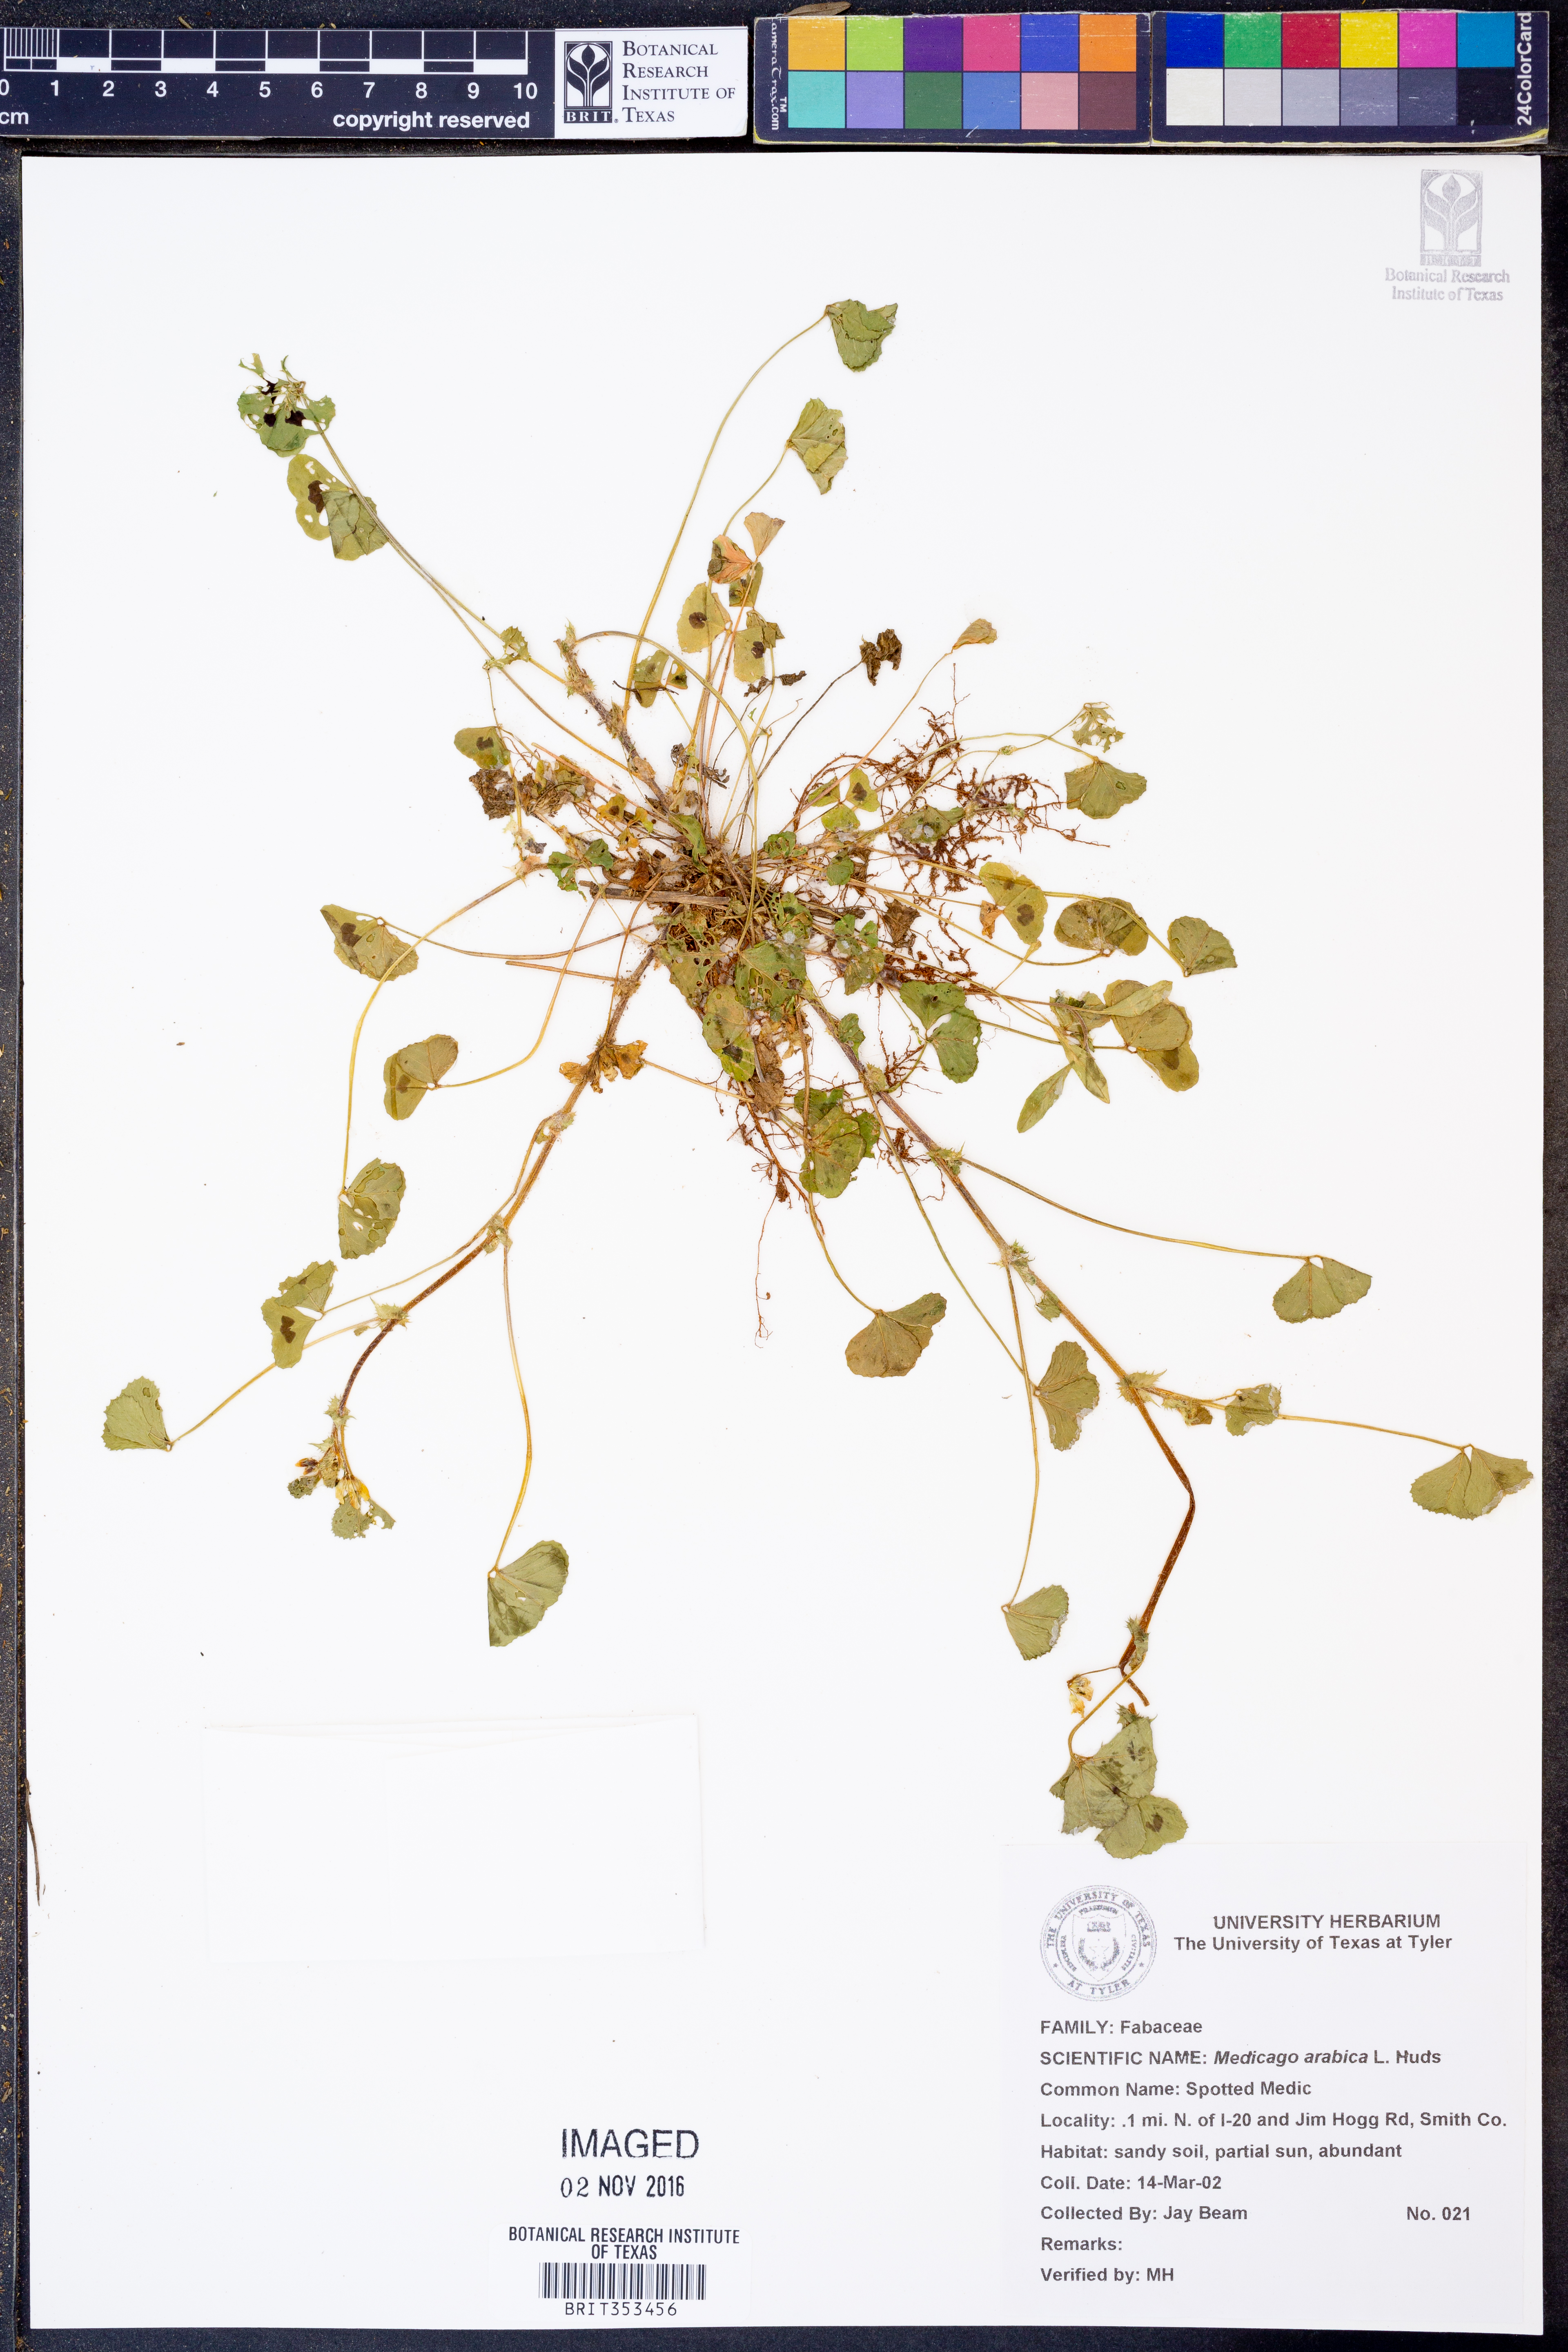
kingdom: Plantae
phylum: Tracheophyta
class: Magnoliopsida
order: Fabales
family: Fabaceae
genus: Medicago
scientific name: Medicago arabica
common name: Spotted medick
